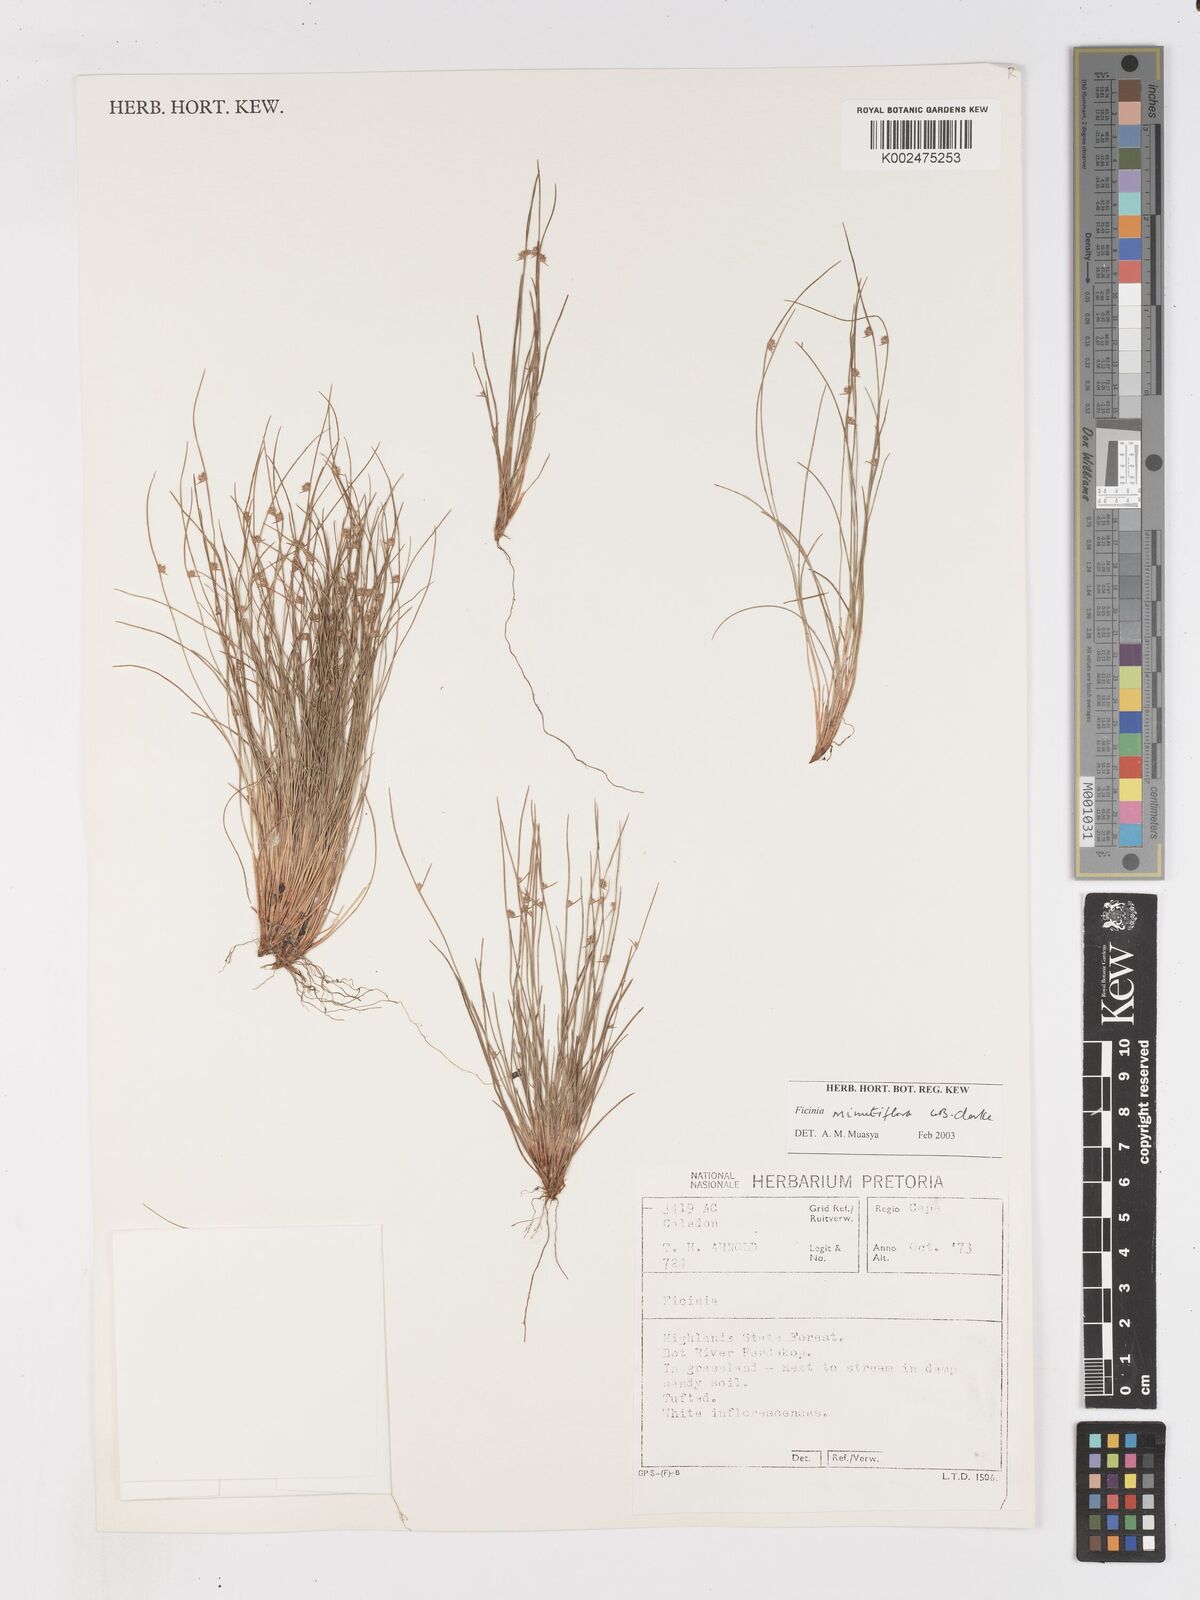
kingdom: Plantae
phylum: Tracheophyta
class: Liliopsida
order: Poales
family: Cyperaceae
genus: Ficinia
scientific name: Ficinia minutiflora
